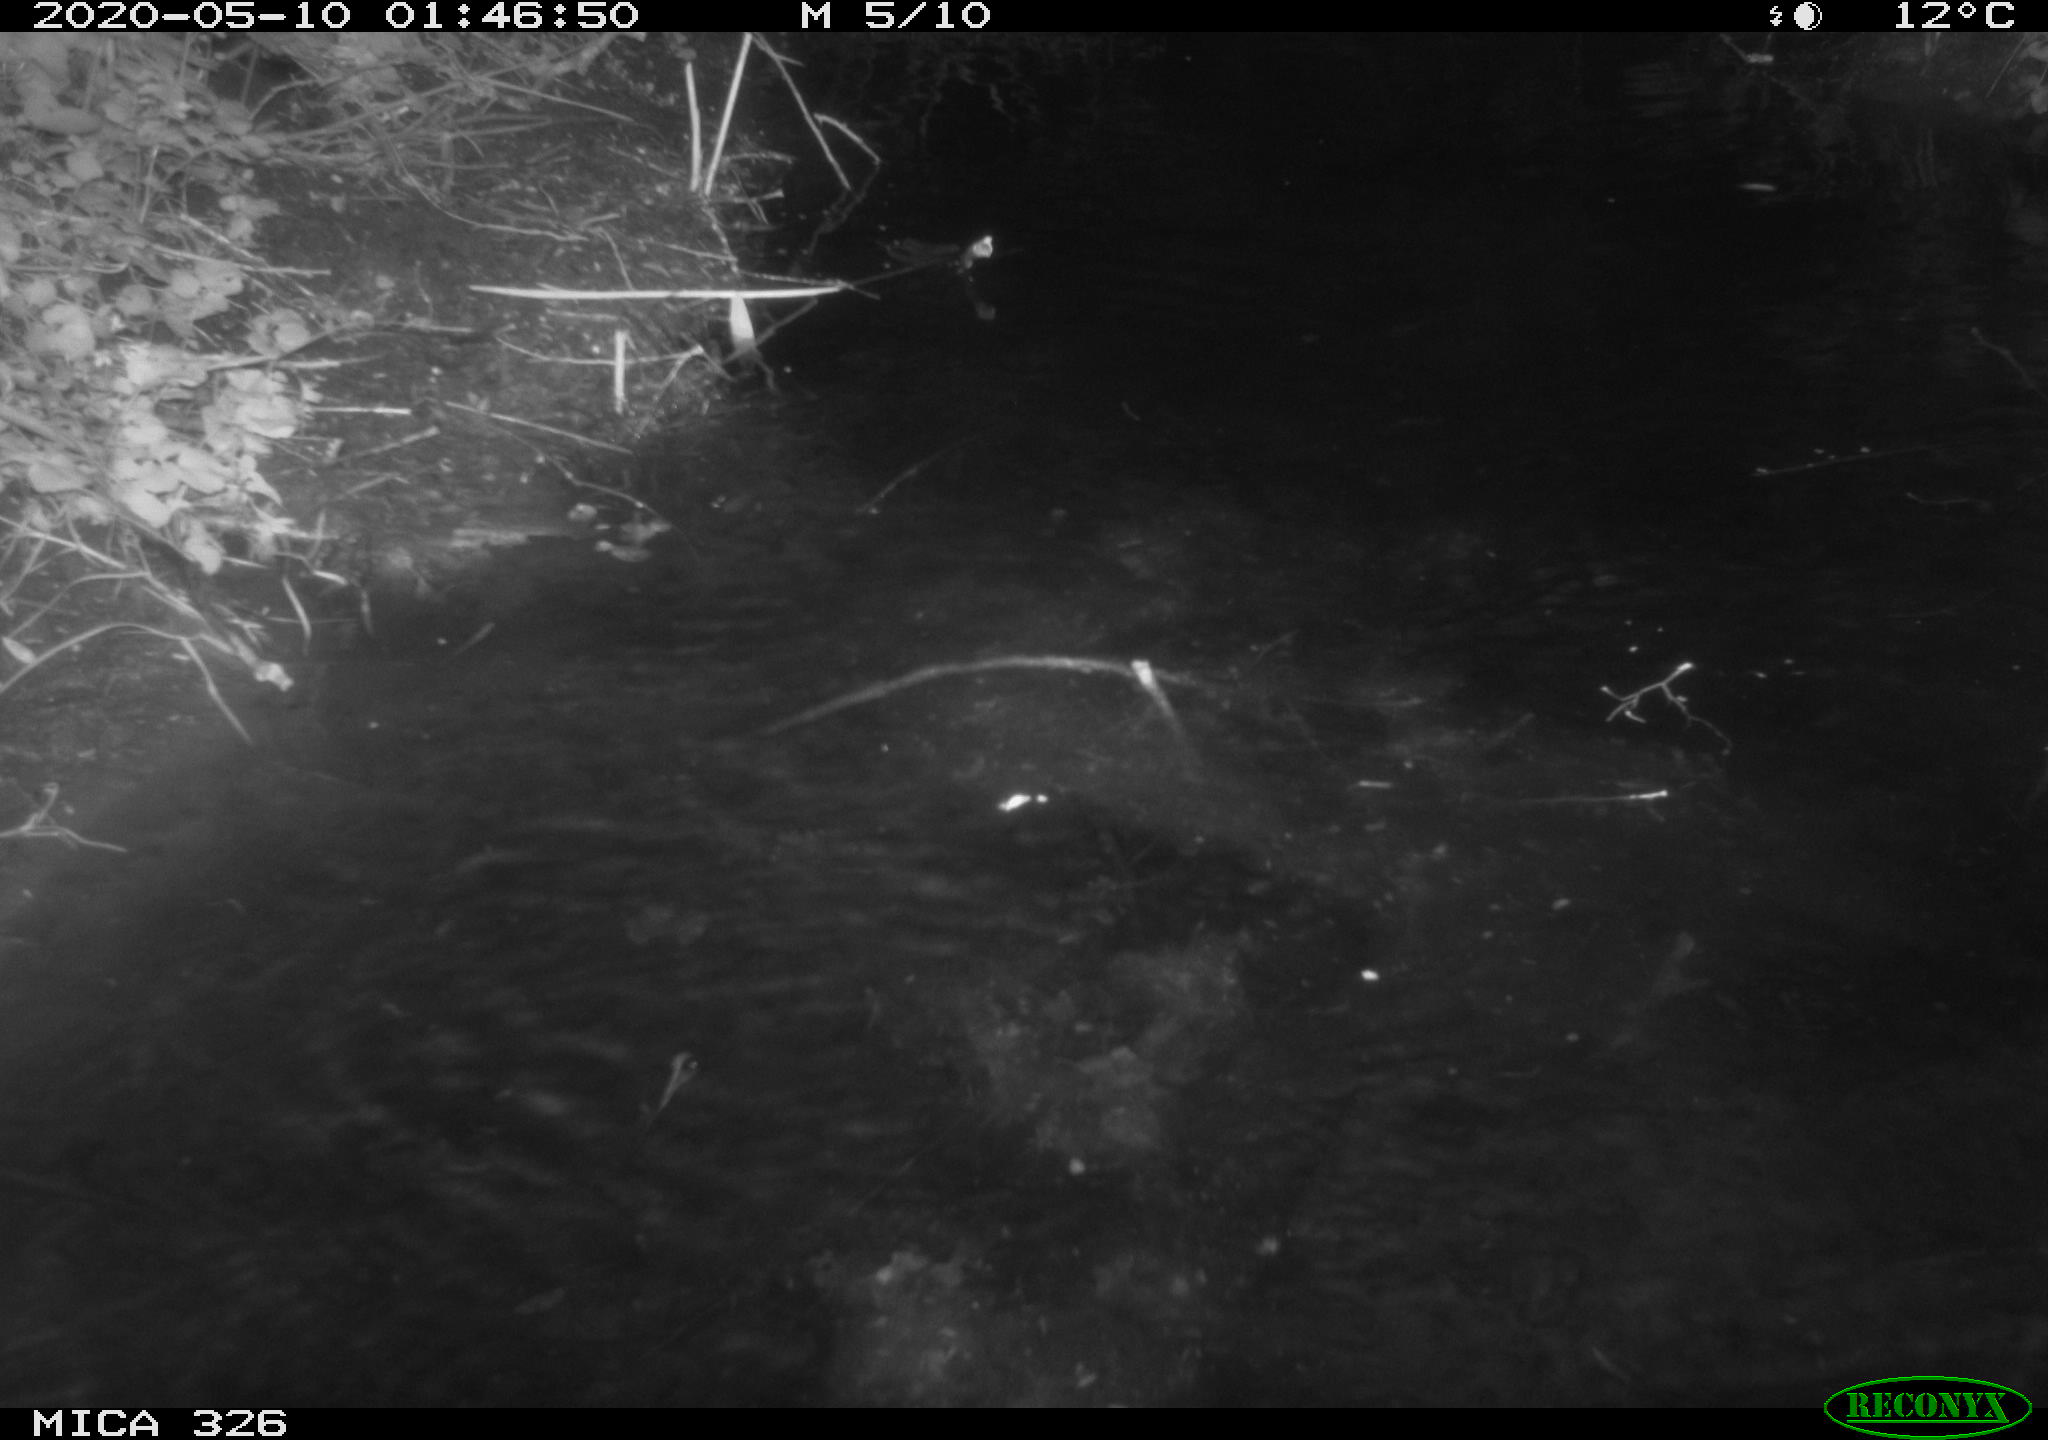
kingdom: Animalia
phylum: Chordata
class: Mammalia
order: Rodentia
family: Myocastoridae
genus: Myocastor
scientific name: Myocastor coypus
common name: Coypu
